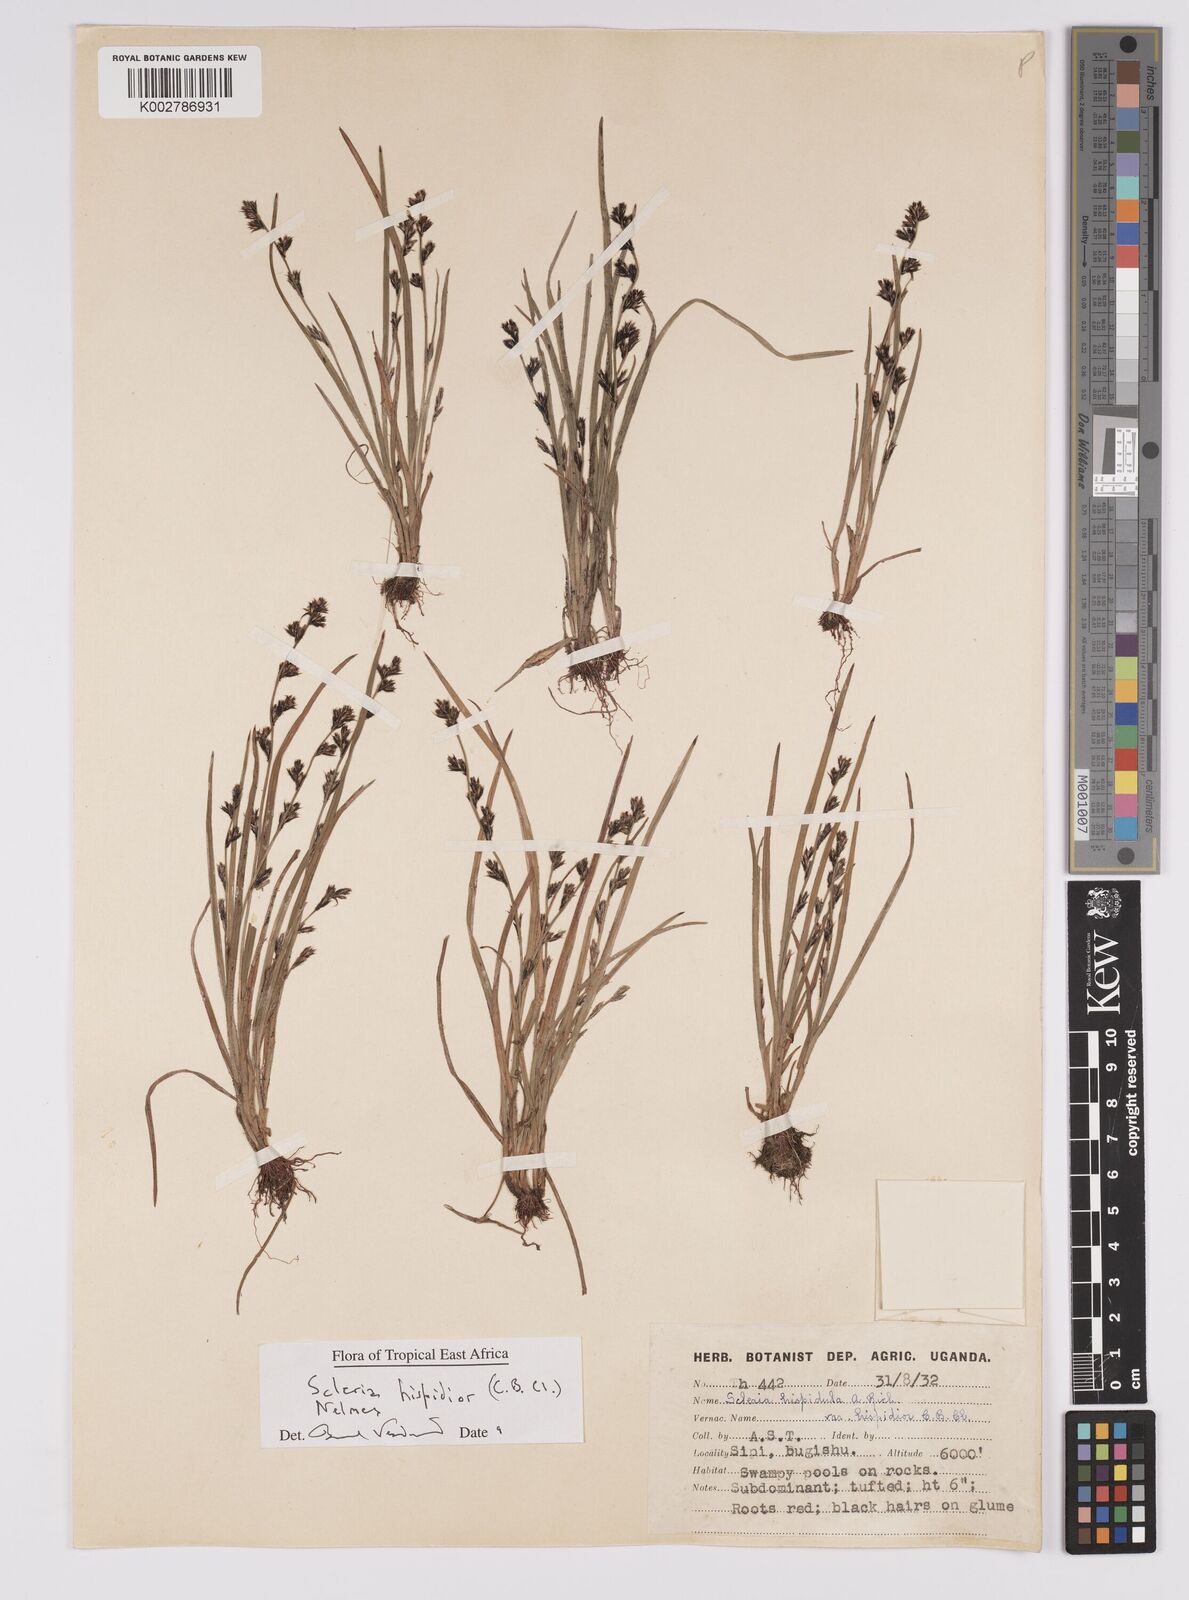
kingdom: Plantae
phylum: Tracheophyta
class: Liliopsida
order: Poales
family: Cyperaceae
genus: Scleria
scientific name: Scleria hispidula
